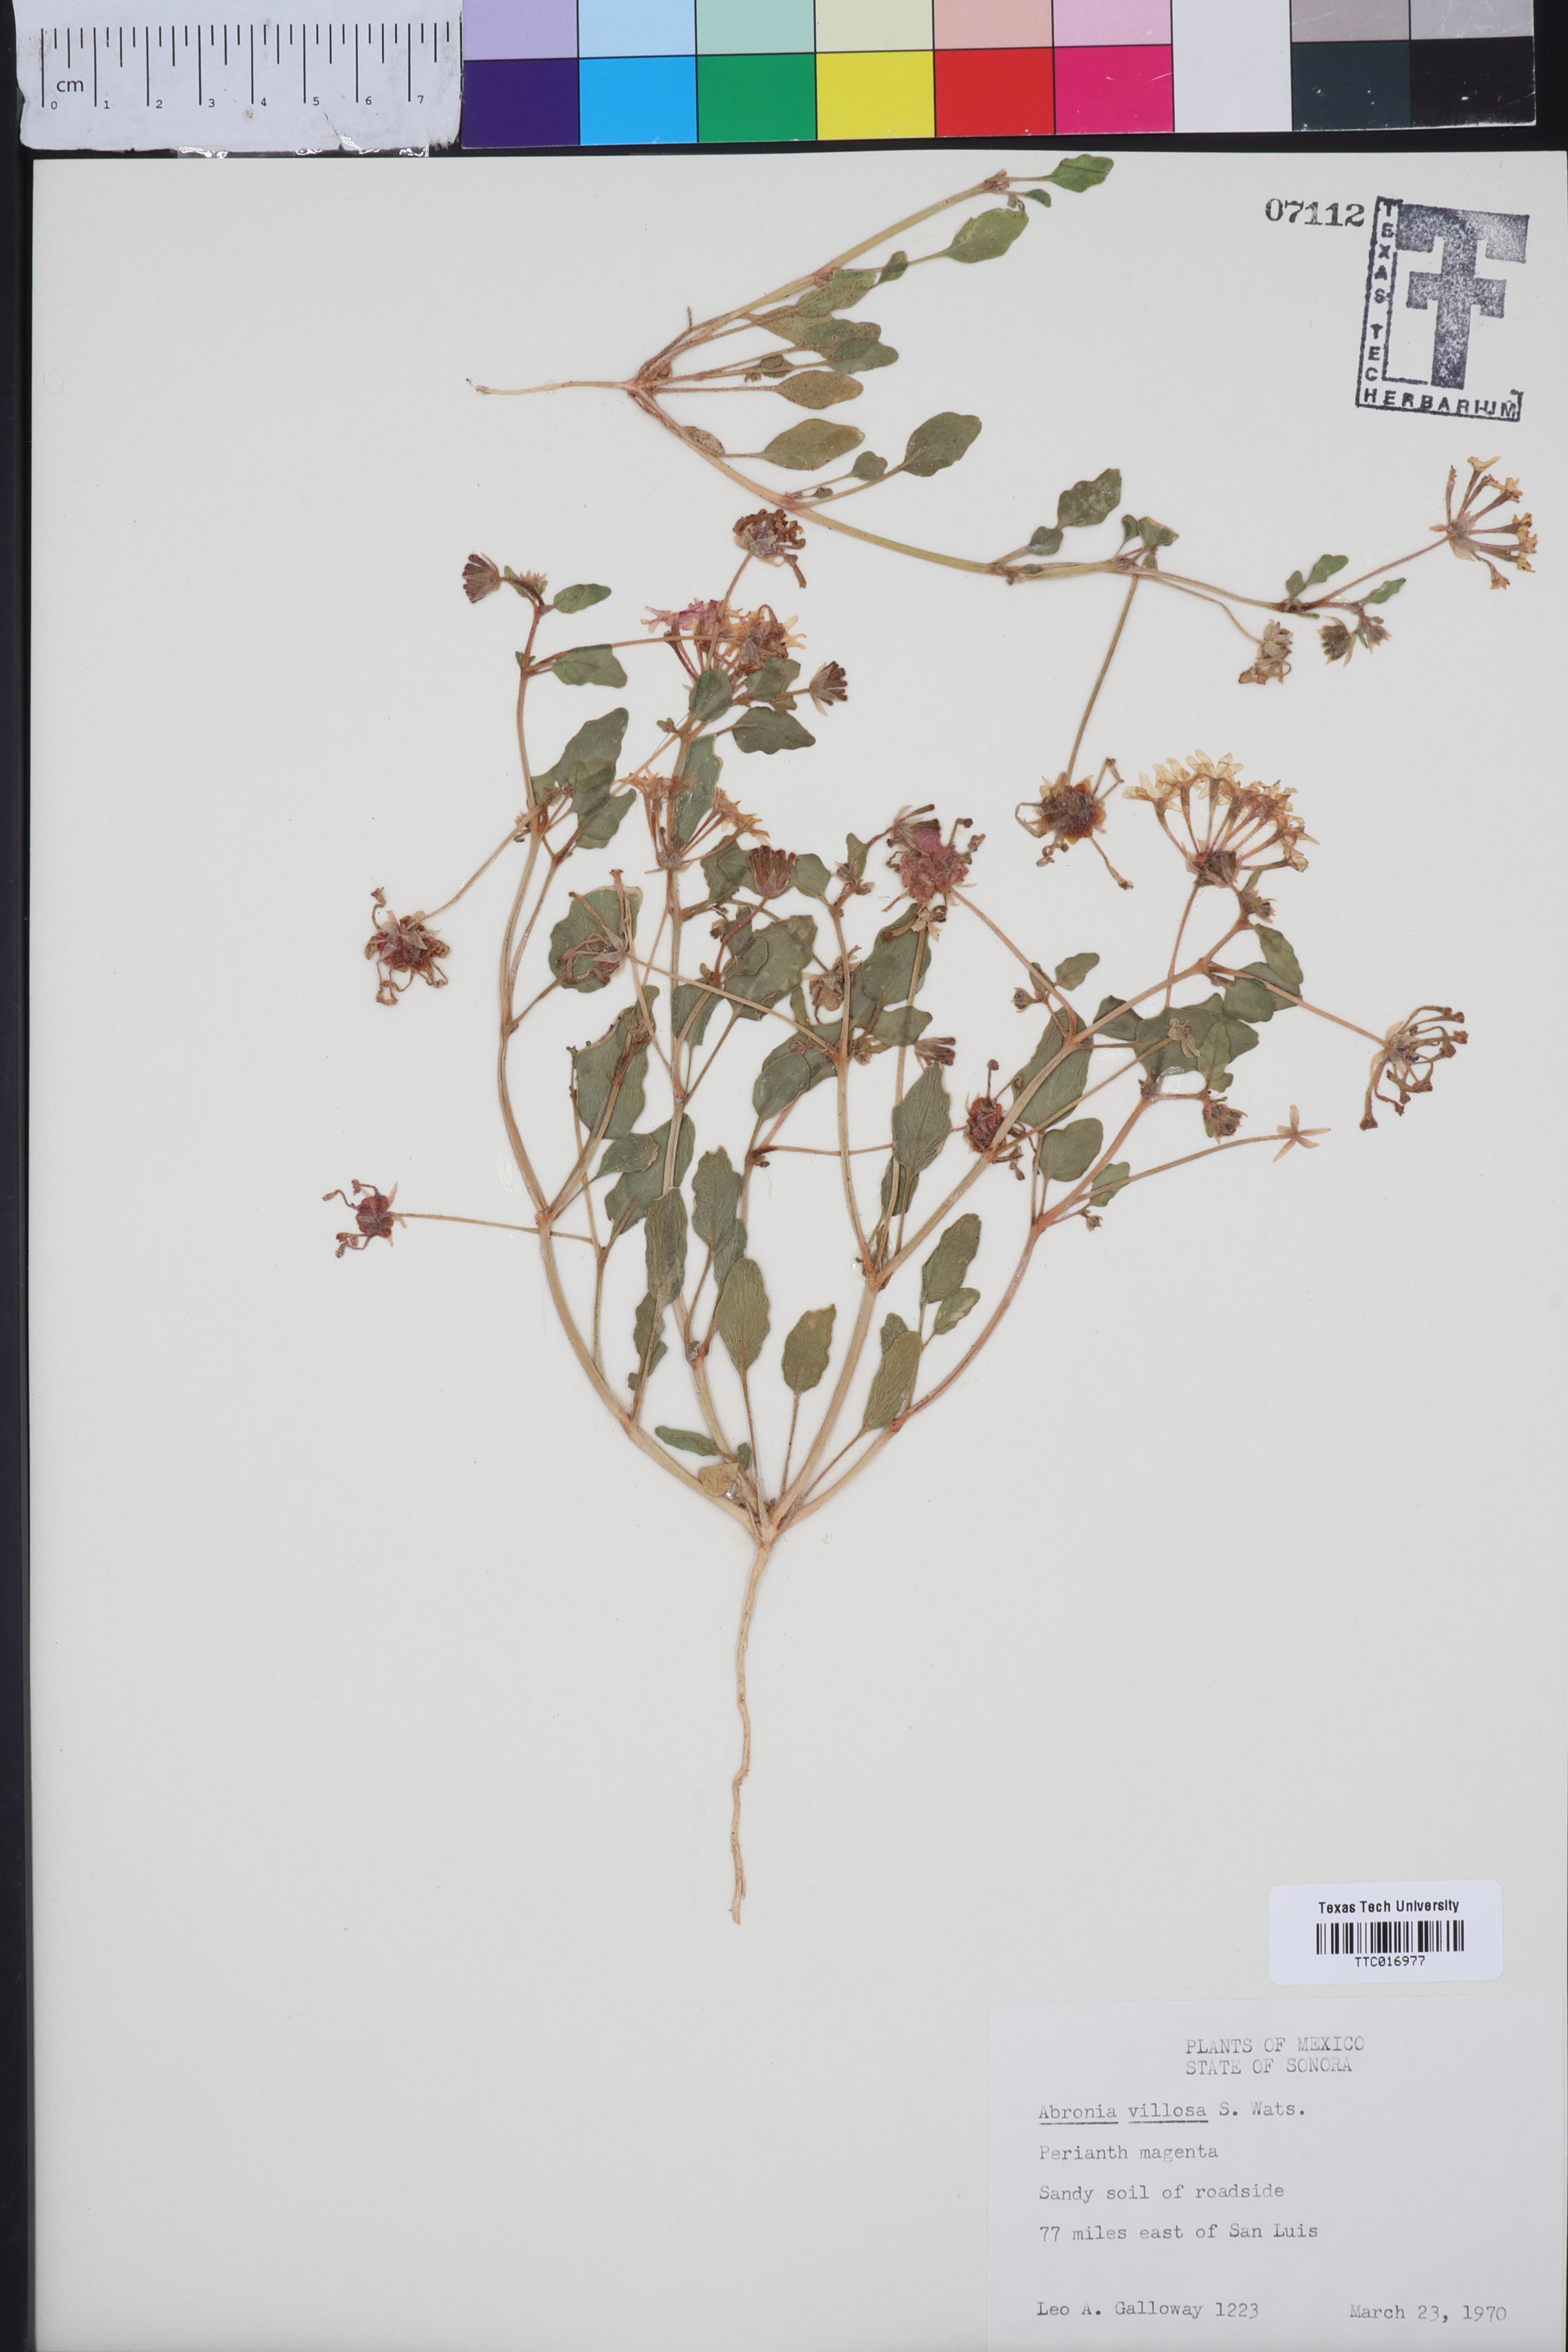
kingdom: Plantae
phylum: Tracheophyta
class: Magnoliopsida
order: Caryophyllales
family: Nyctaginaceae
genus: Abronia
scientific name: Abronia villosa
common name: Desert sand-verbena
